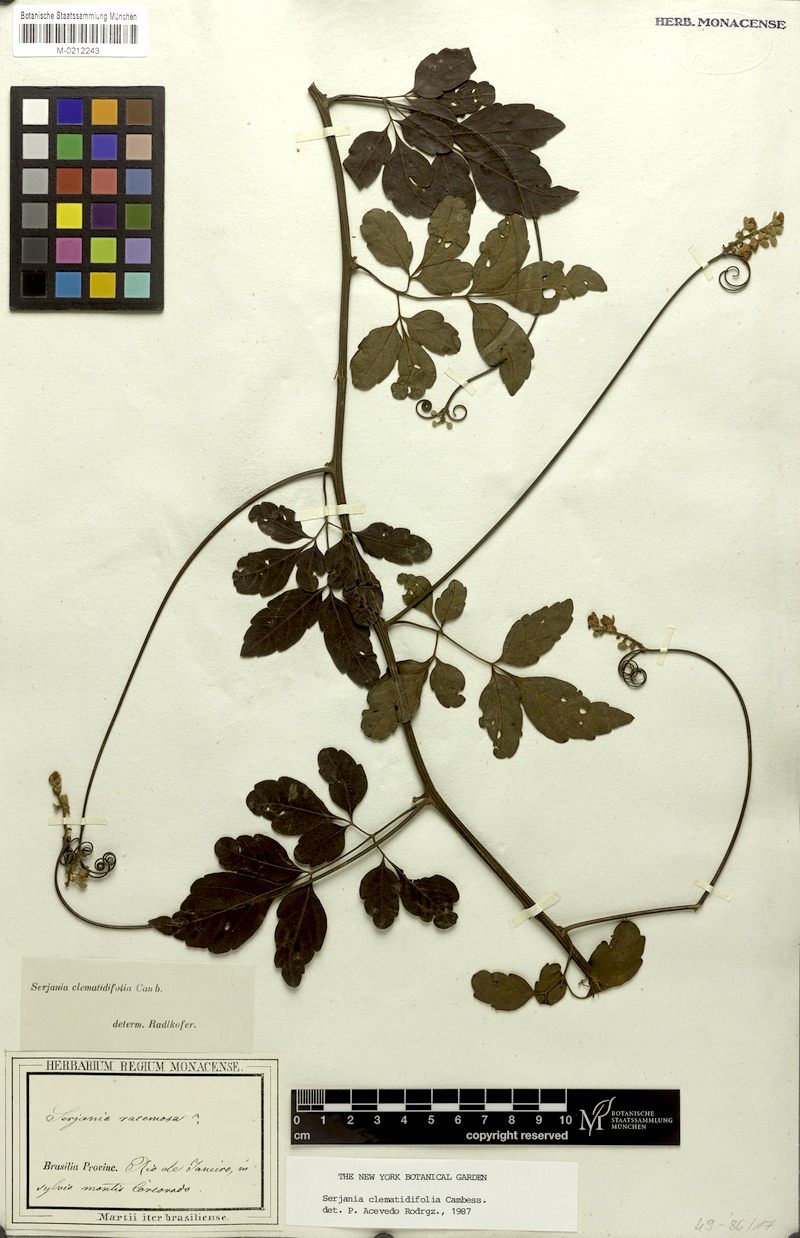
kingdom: Plantae
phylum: Tracheophyta
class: Magnoliopsida
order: Sapindales
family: Sapindaceae
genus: Serjania
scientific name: Serjania clematidifolia
